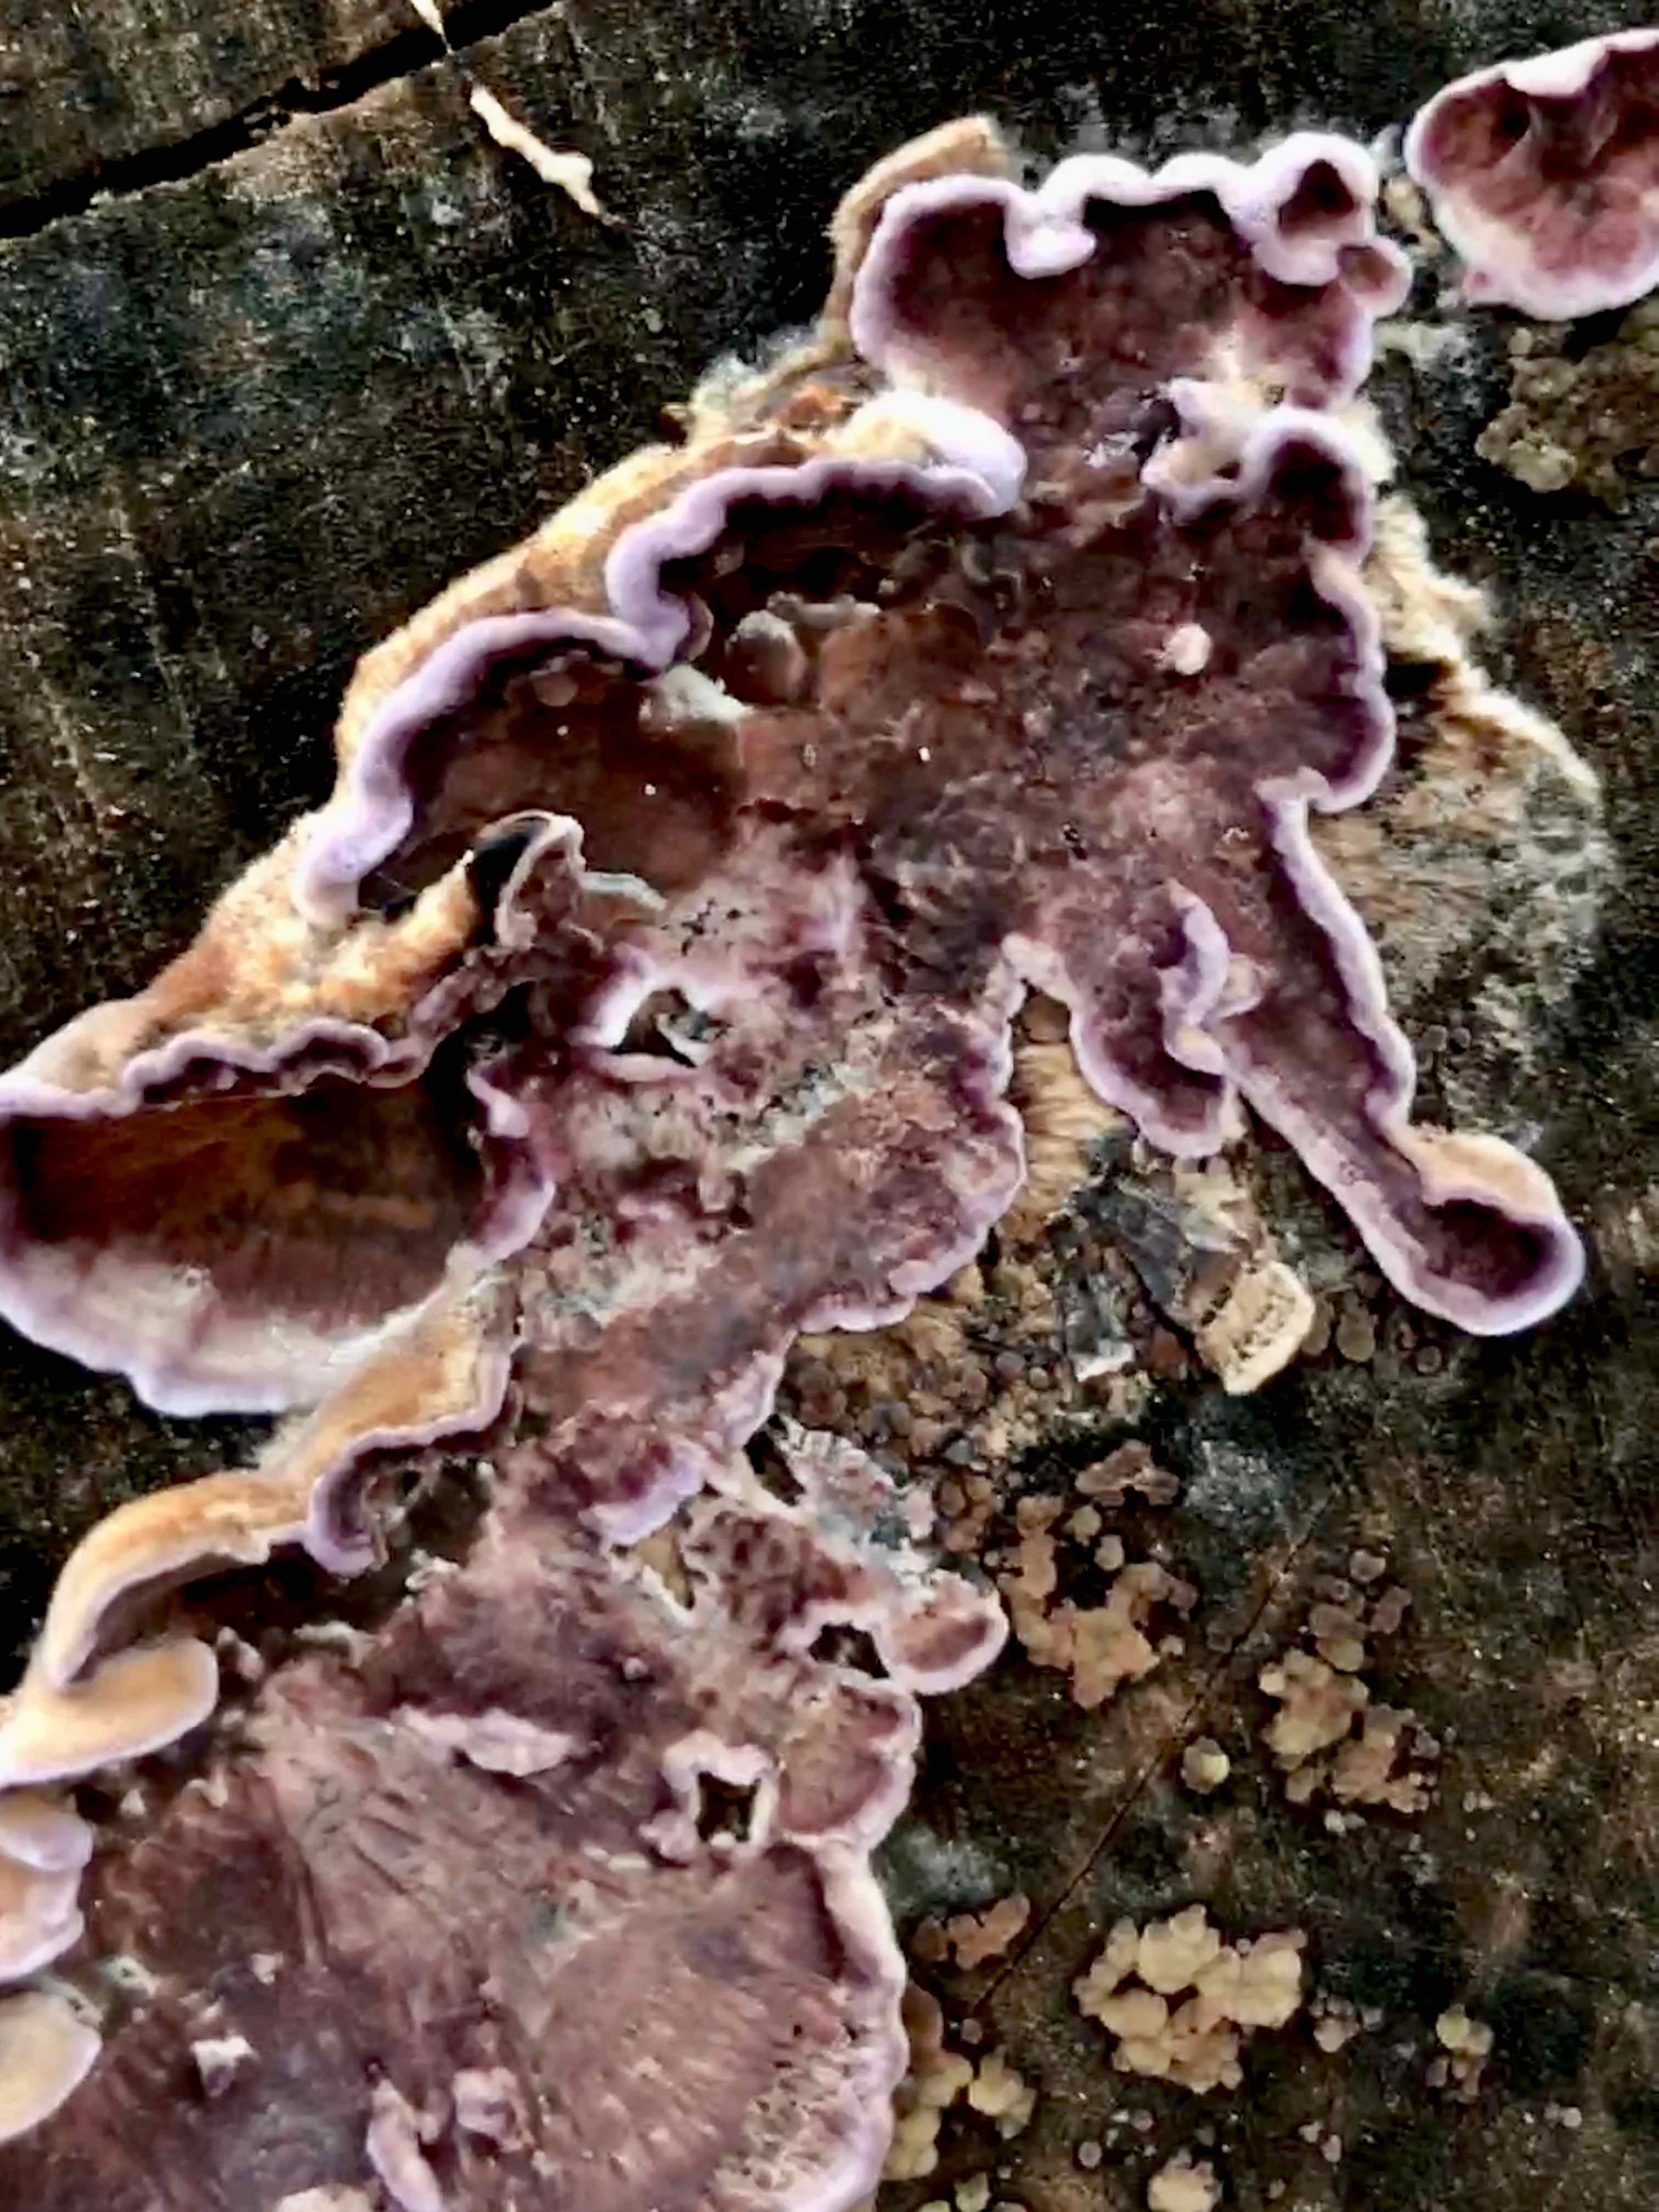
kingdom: Fungi
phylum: Basidiomycota
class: Agaricomycetes
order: Agaricales
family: Cyphellaceae
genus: Chondrostereum
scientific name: Chondrostereum purpureum
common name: purpurlædersvamp
